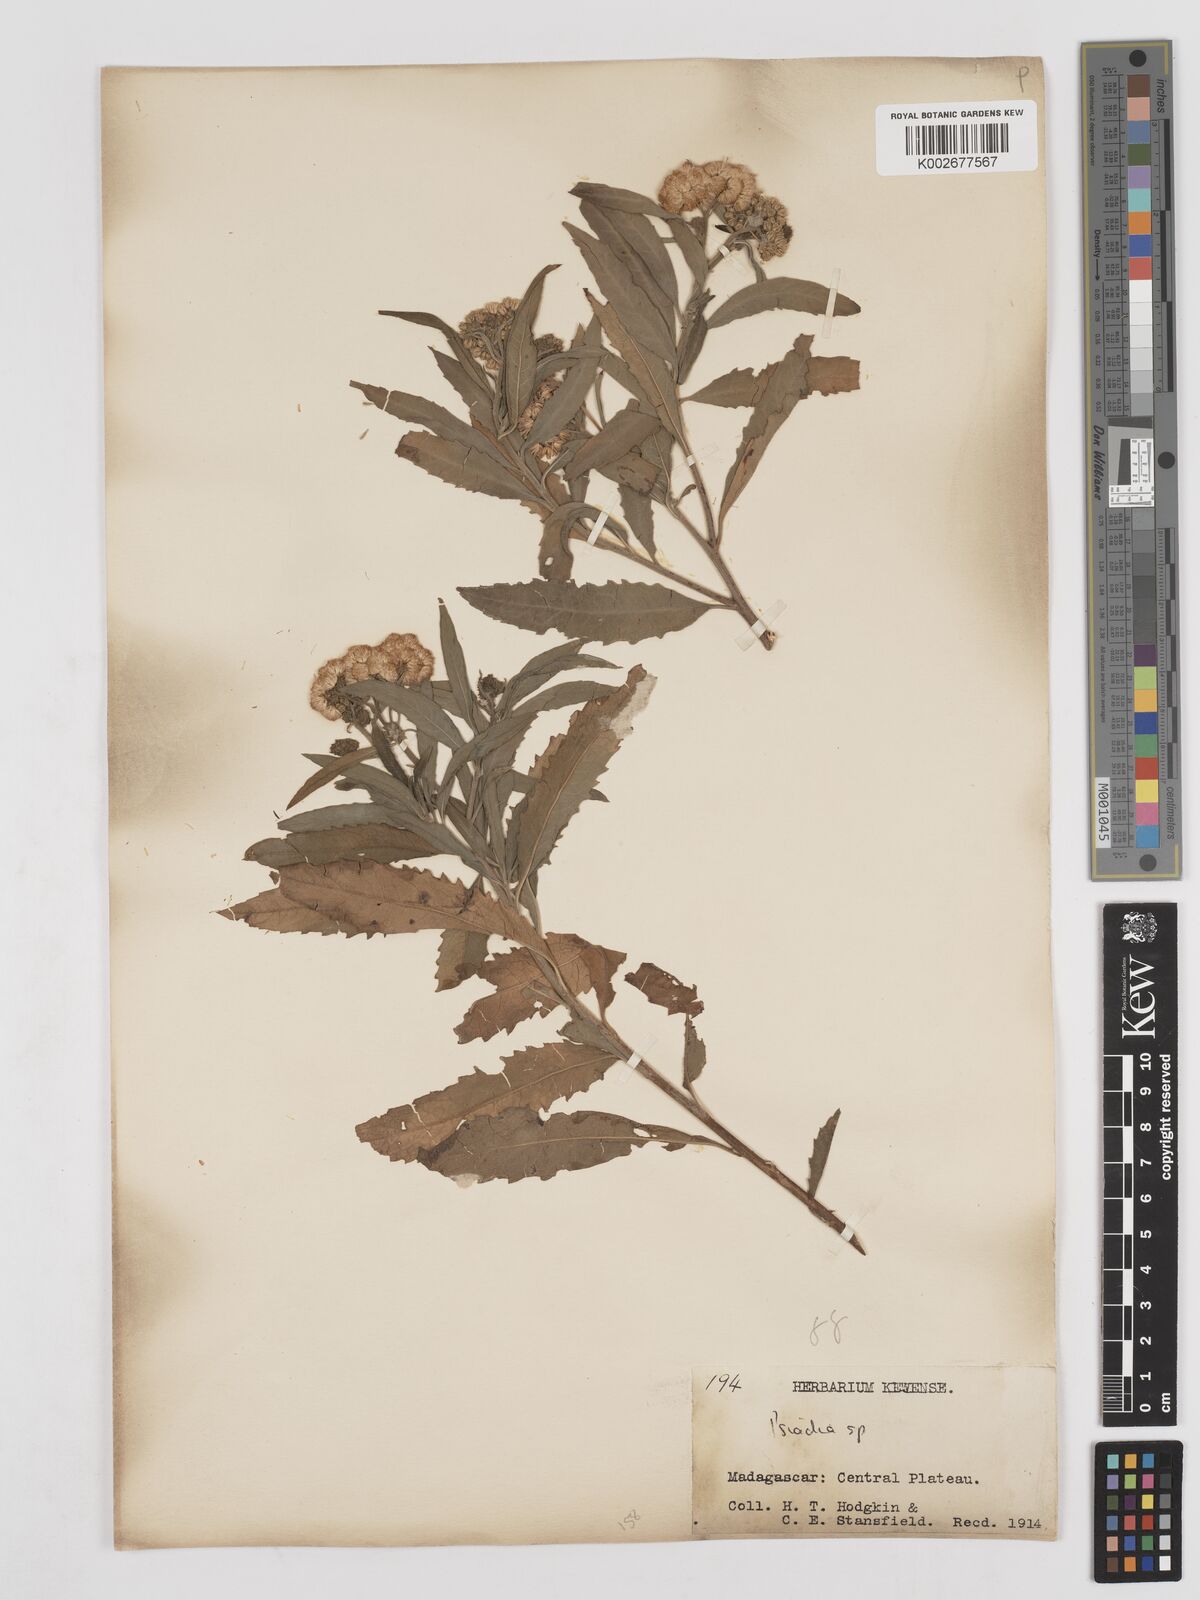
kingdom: Plantae
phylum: Tracheophyta
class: Magnoliopsida
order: Asterales
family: Asteraceae
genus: Psiadia
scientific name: Psiadia
